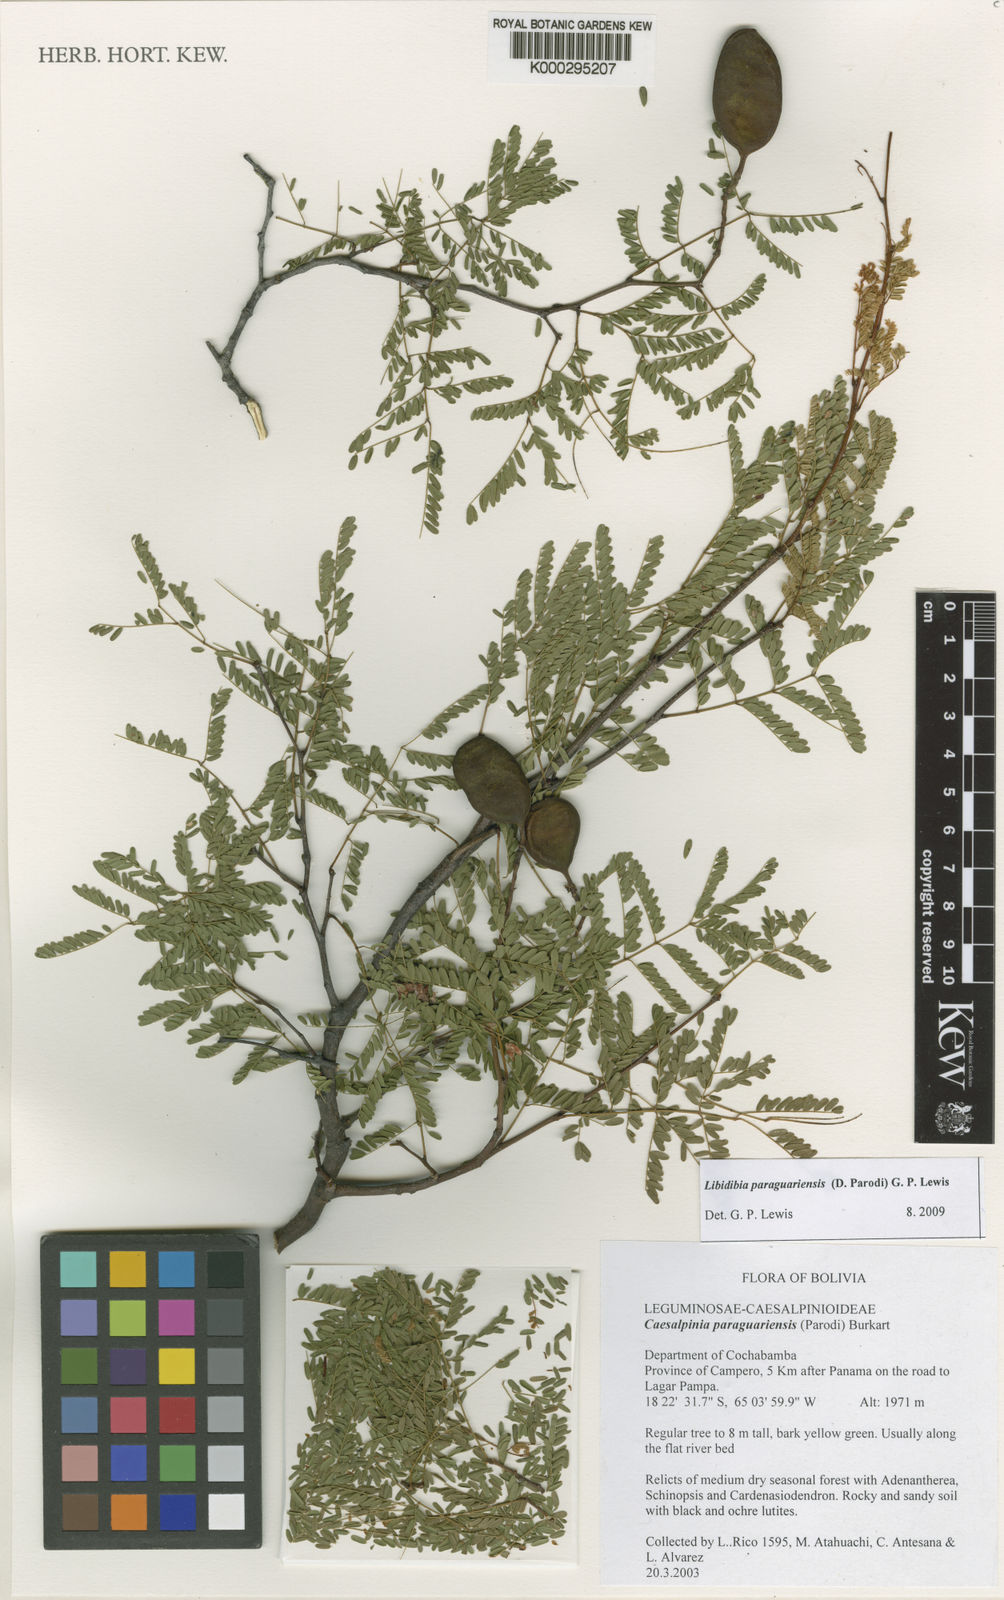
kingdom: Plantae
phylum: Tracheophyta
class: Magnoliopsida
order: Fabales
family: Fabaceae
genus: Libidibia
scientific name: Libidibia paraguariensis
